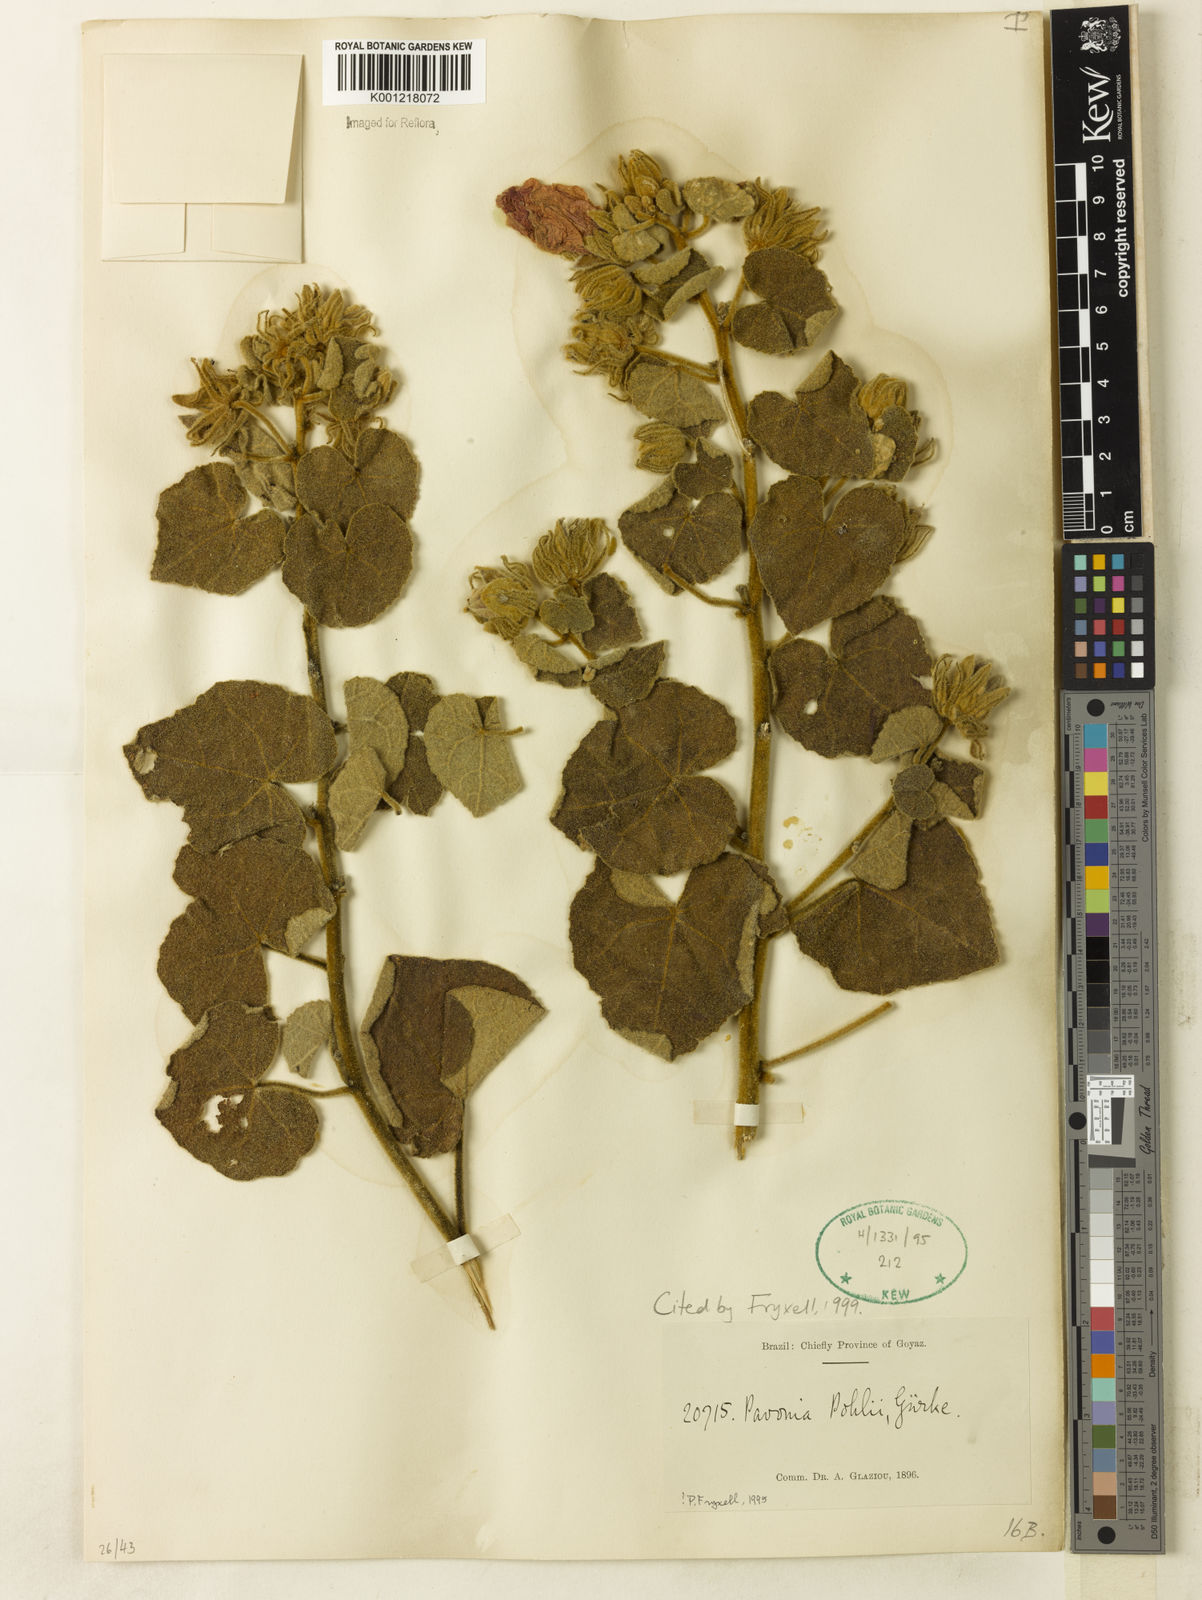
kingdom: Plantae
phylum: Tracheophyta
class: Magnoliopsida
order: Malvales
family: Malvaceae
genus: Pavonia
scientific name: Pavonia
